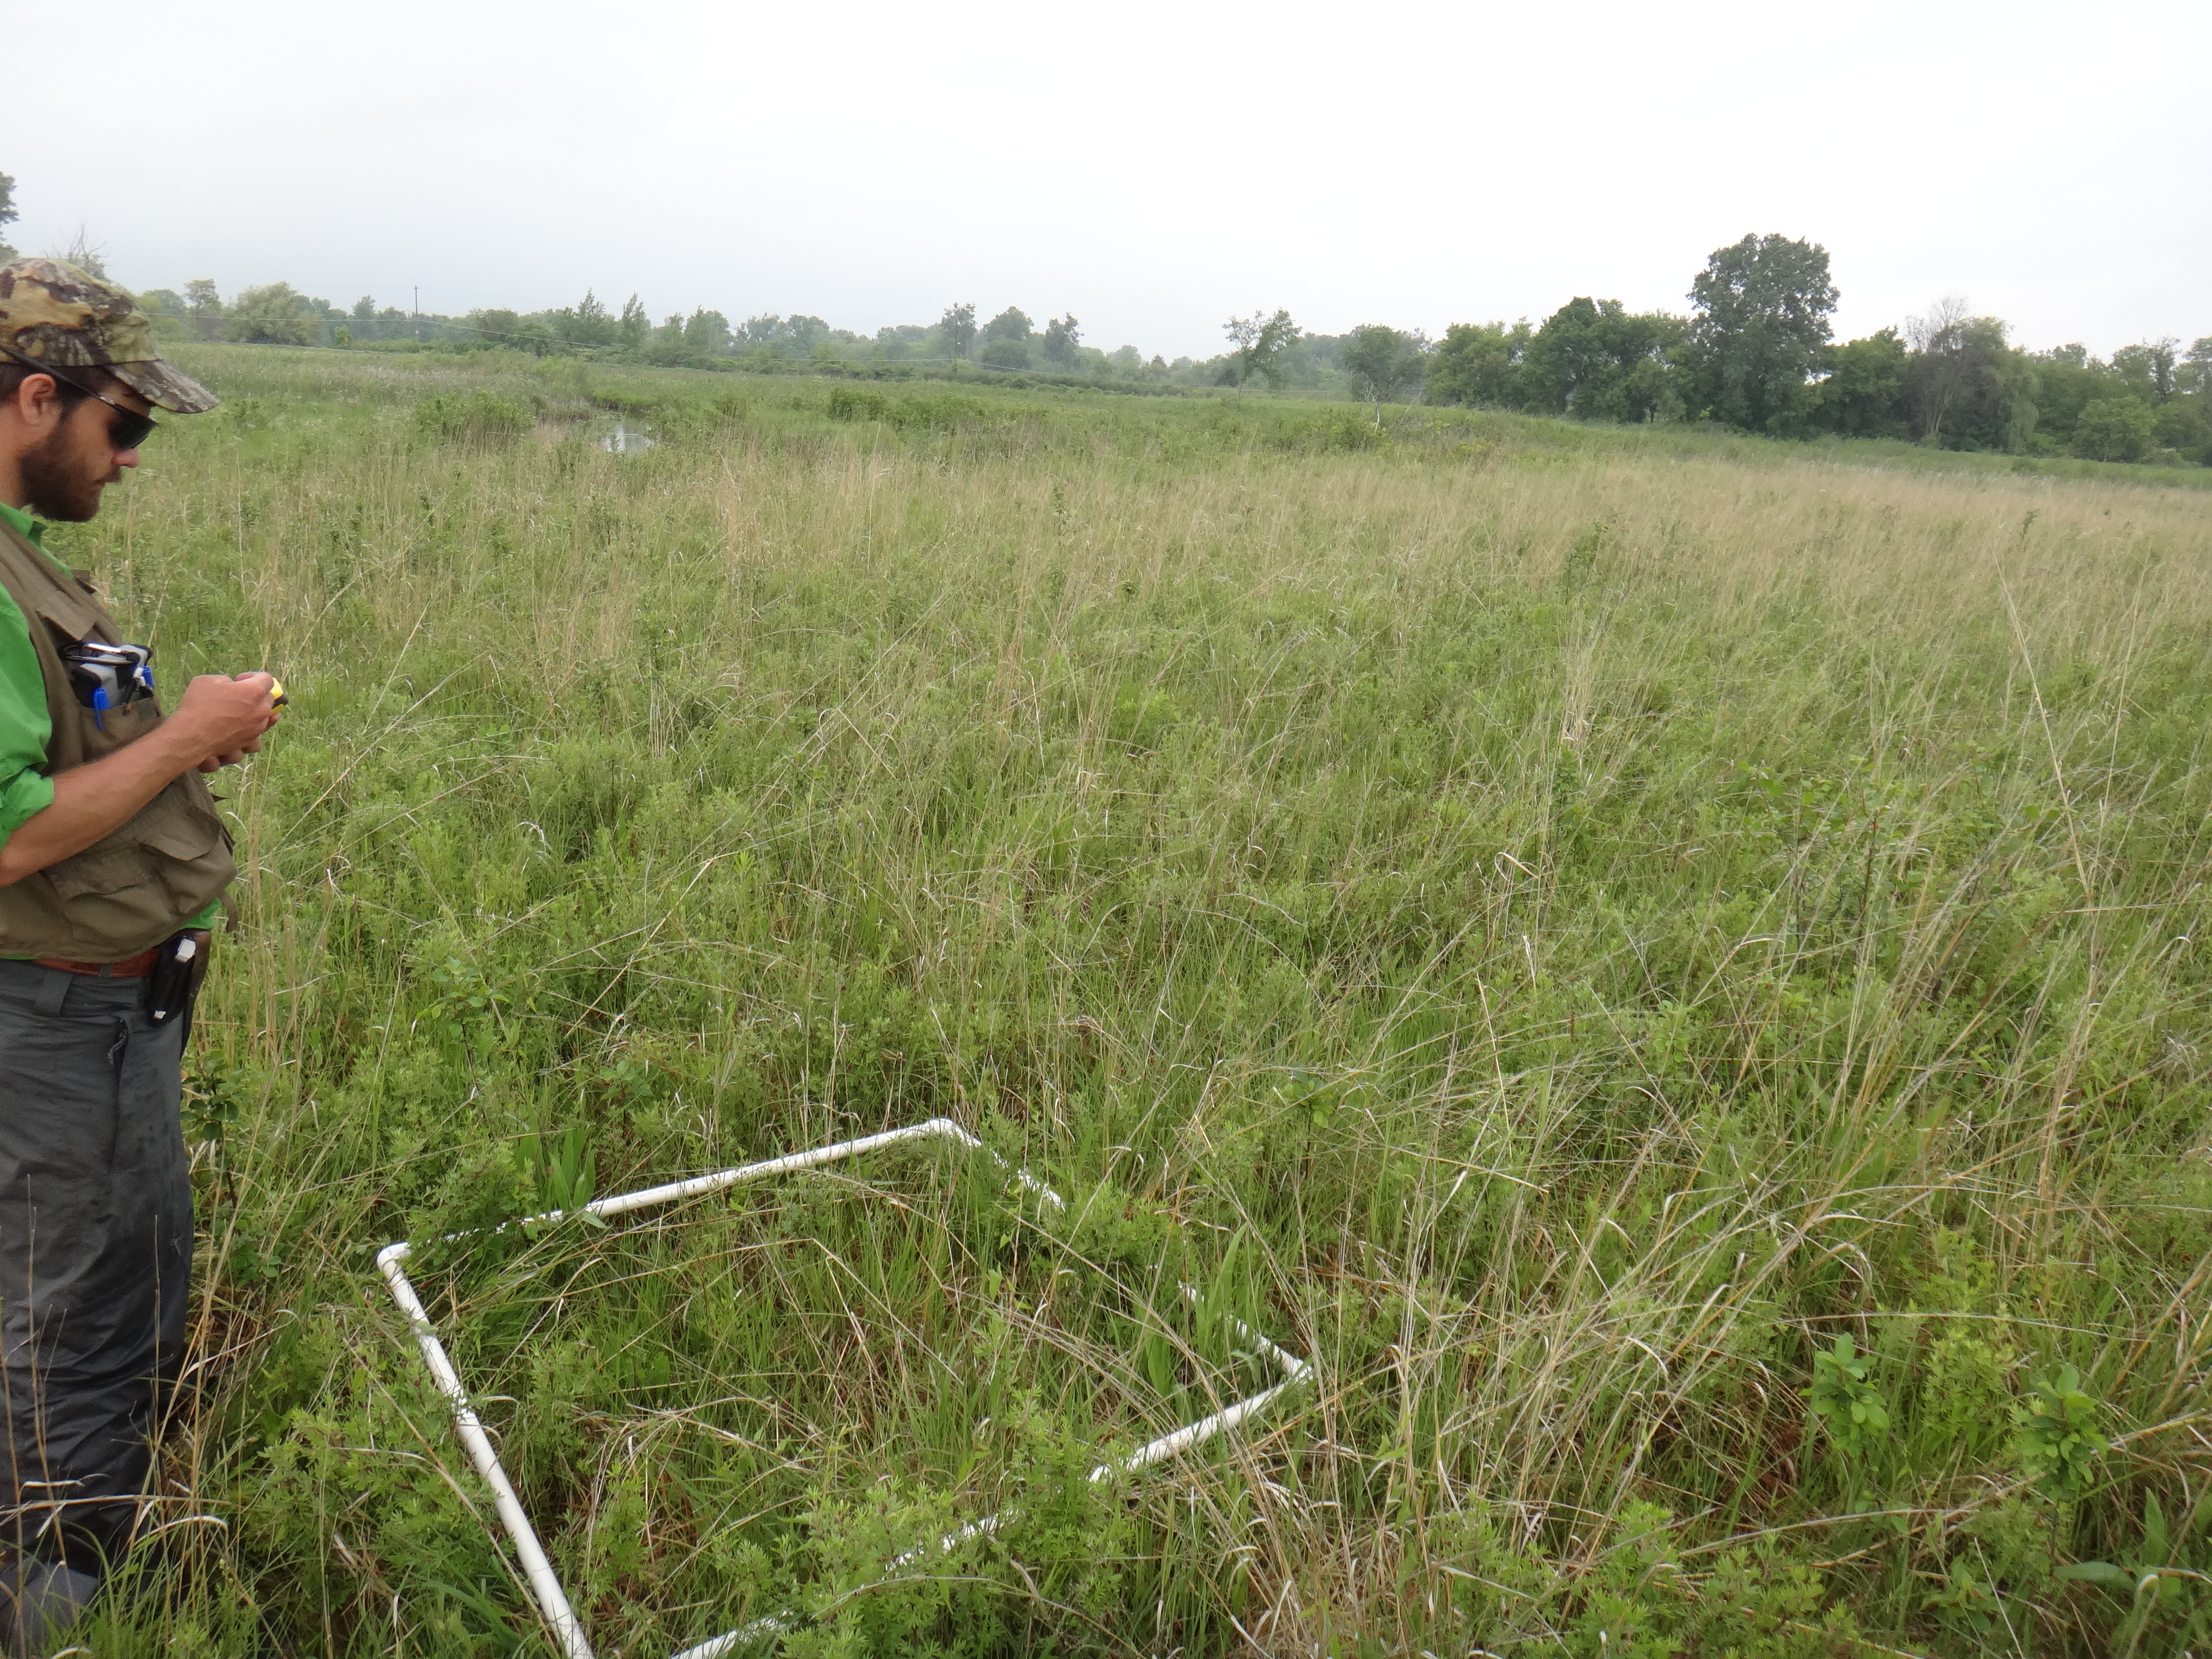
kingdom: Plantae
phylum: Tracheophyta
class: Liliopsida
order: Asparagales
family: Orchidaceae
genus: Calopogon
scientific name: Calopogon tuberosus
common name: Grass-pink
